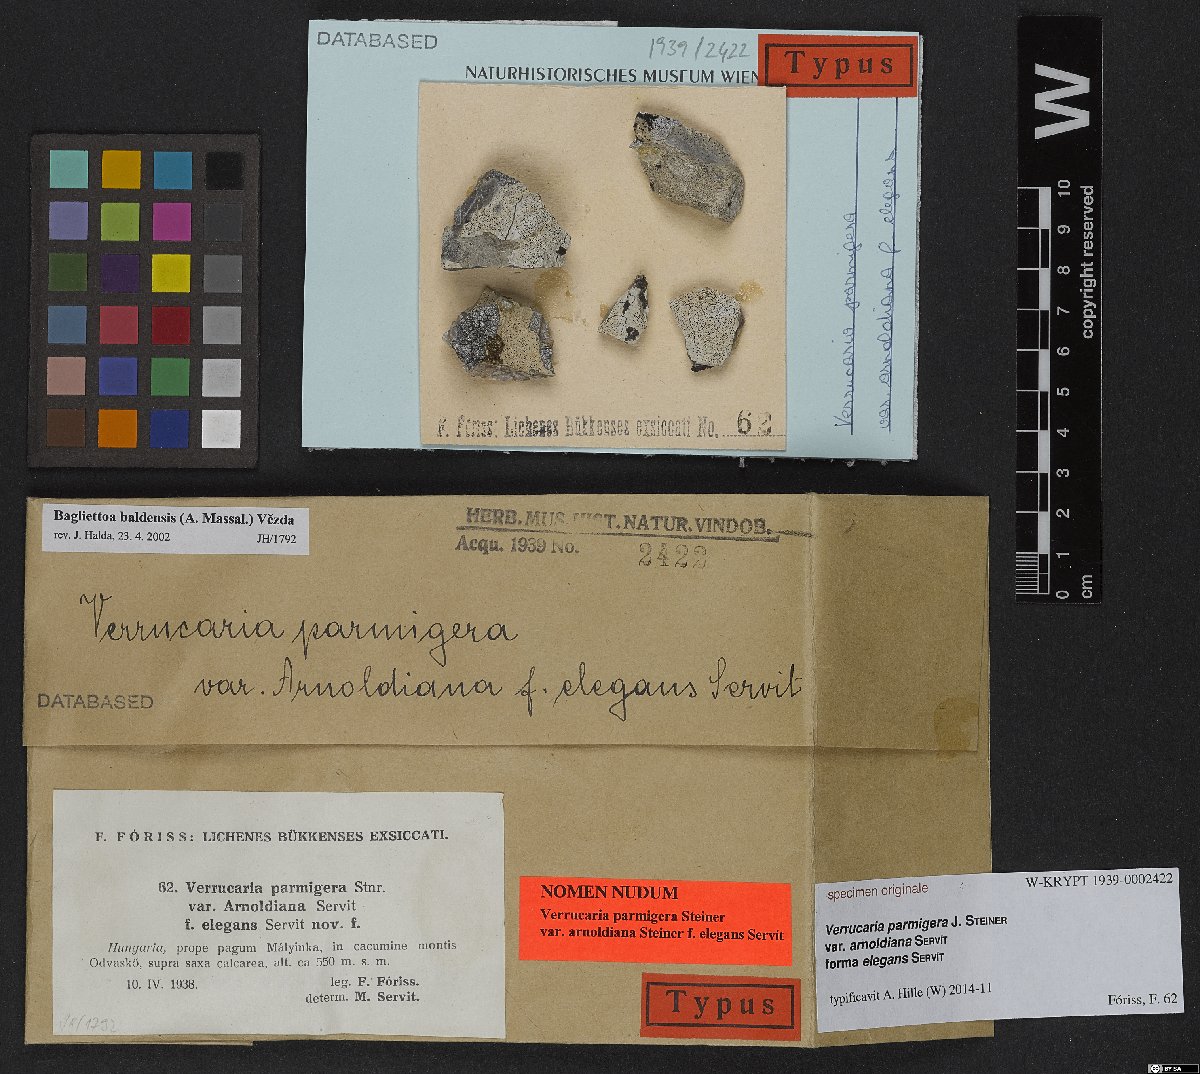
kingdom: Fungi
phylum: Ascomycota
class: Eurotiomycetes
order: Verrucariales
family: Verrucariaceae
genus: Bagliettoa
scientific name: Bagliettoa parmigera
